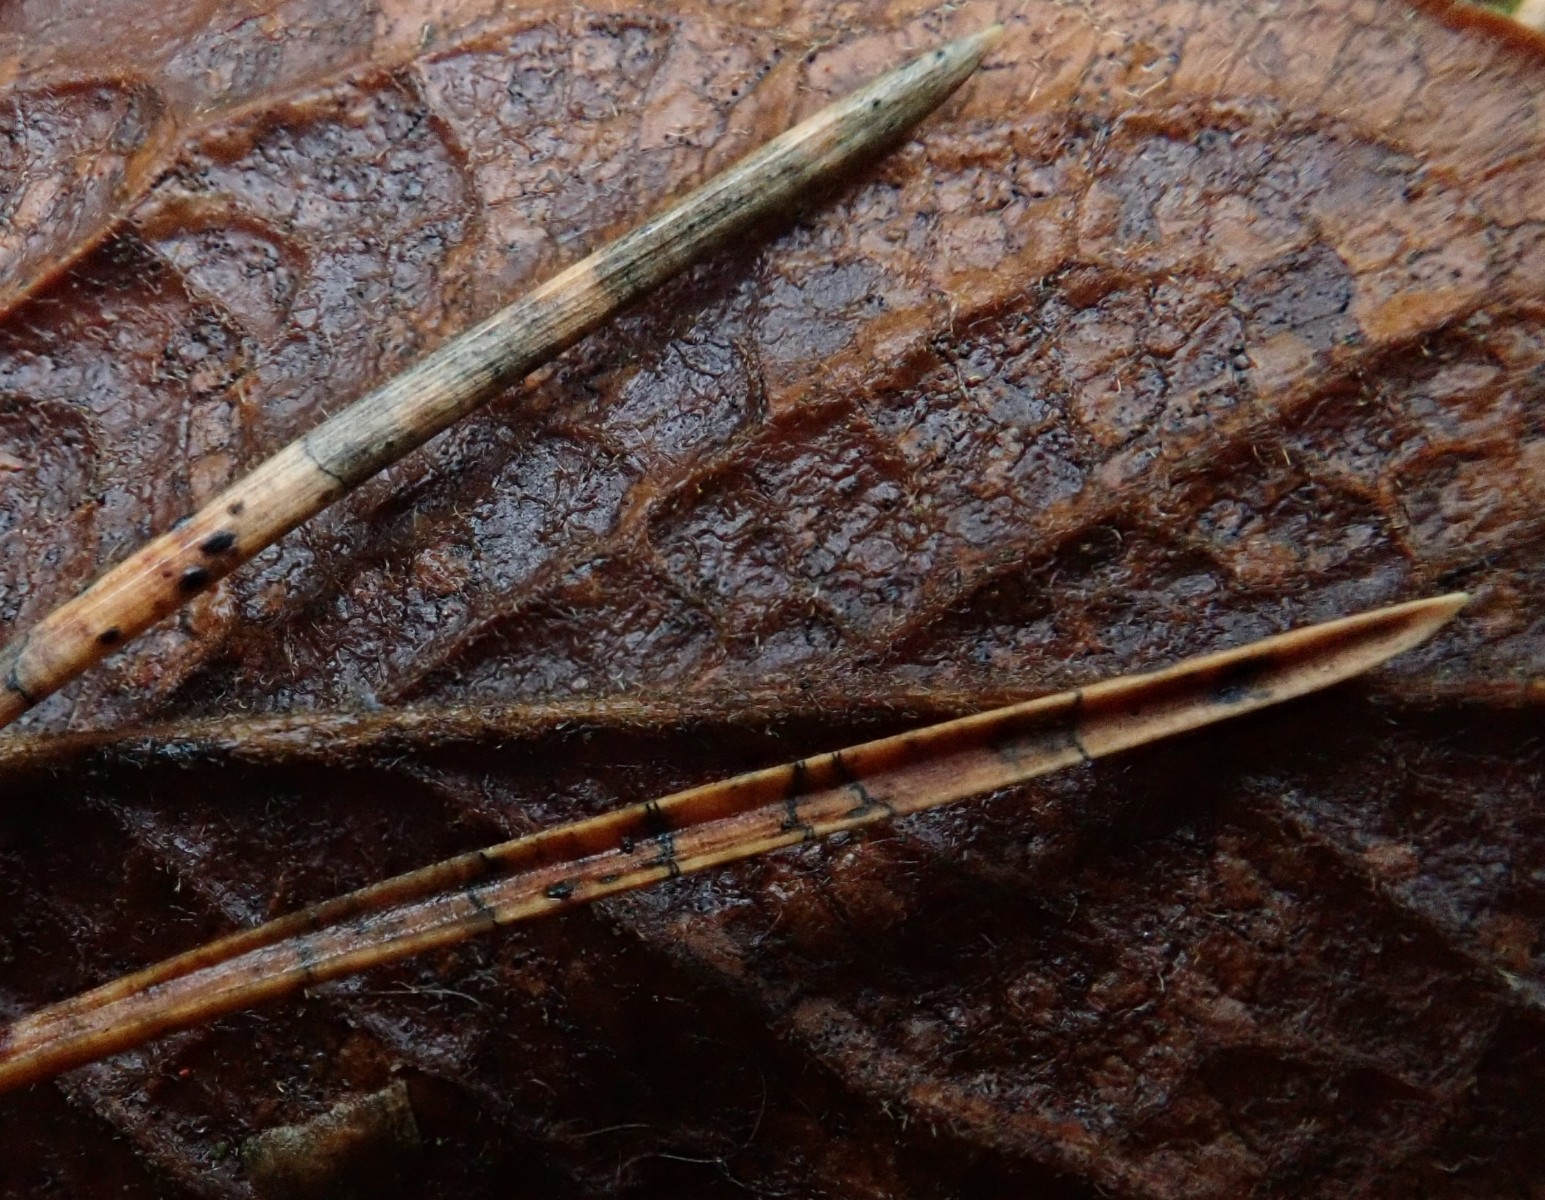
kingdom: Fungi
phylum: Ascomycota
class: Leotiomycetes
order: Rhytismatales
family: Rhytismataceae
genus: Lophodermium
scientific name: Lophodermium pinastri
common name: fyrre-fureplet
